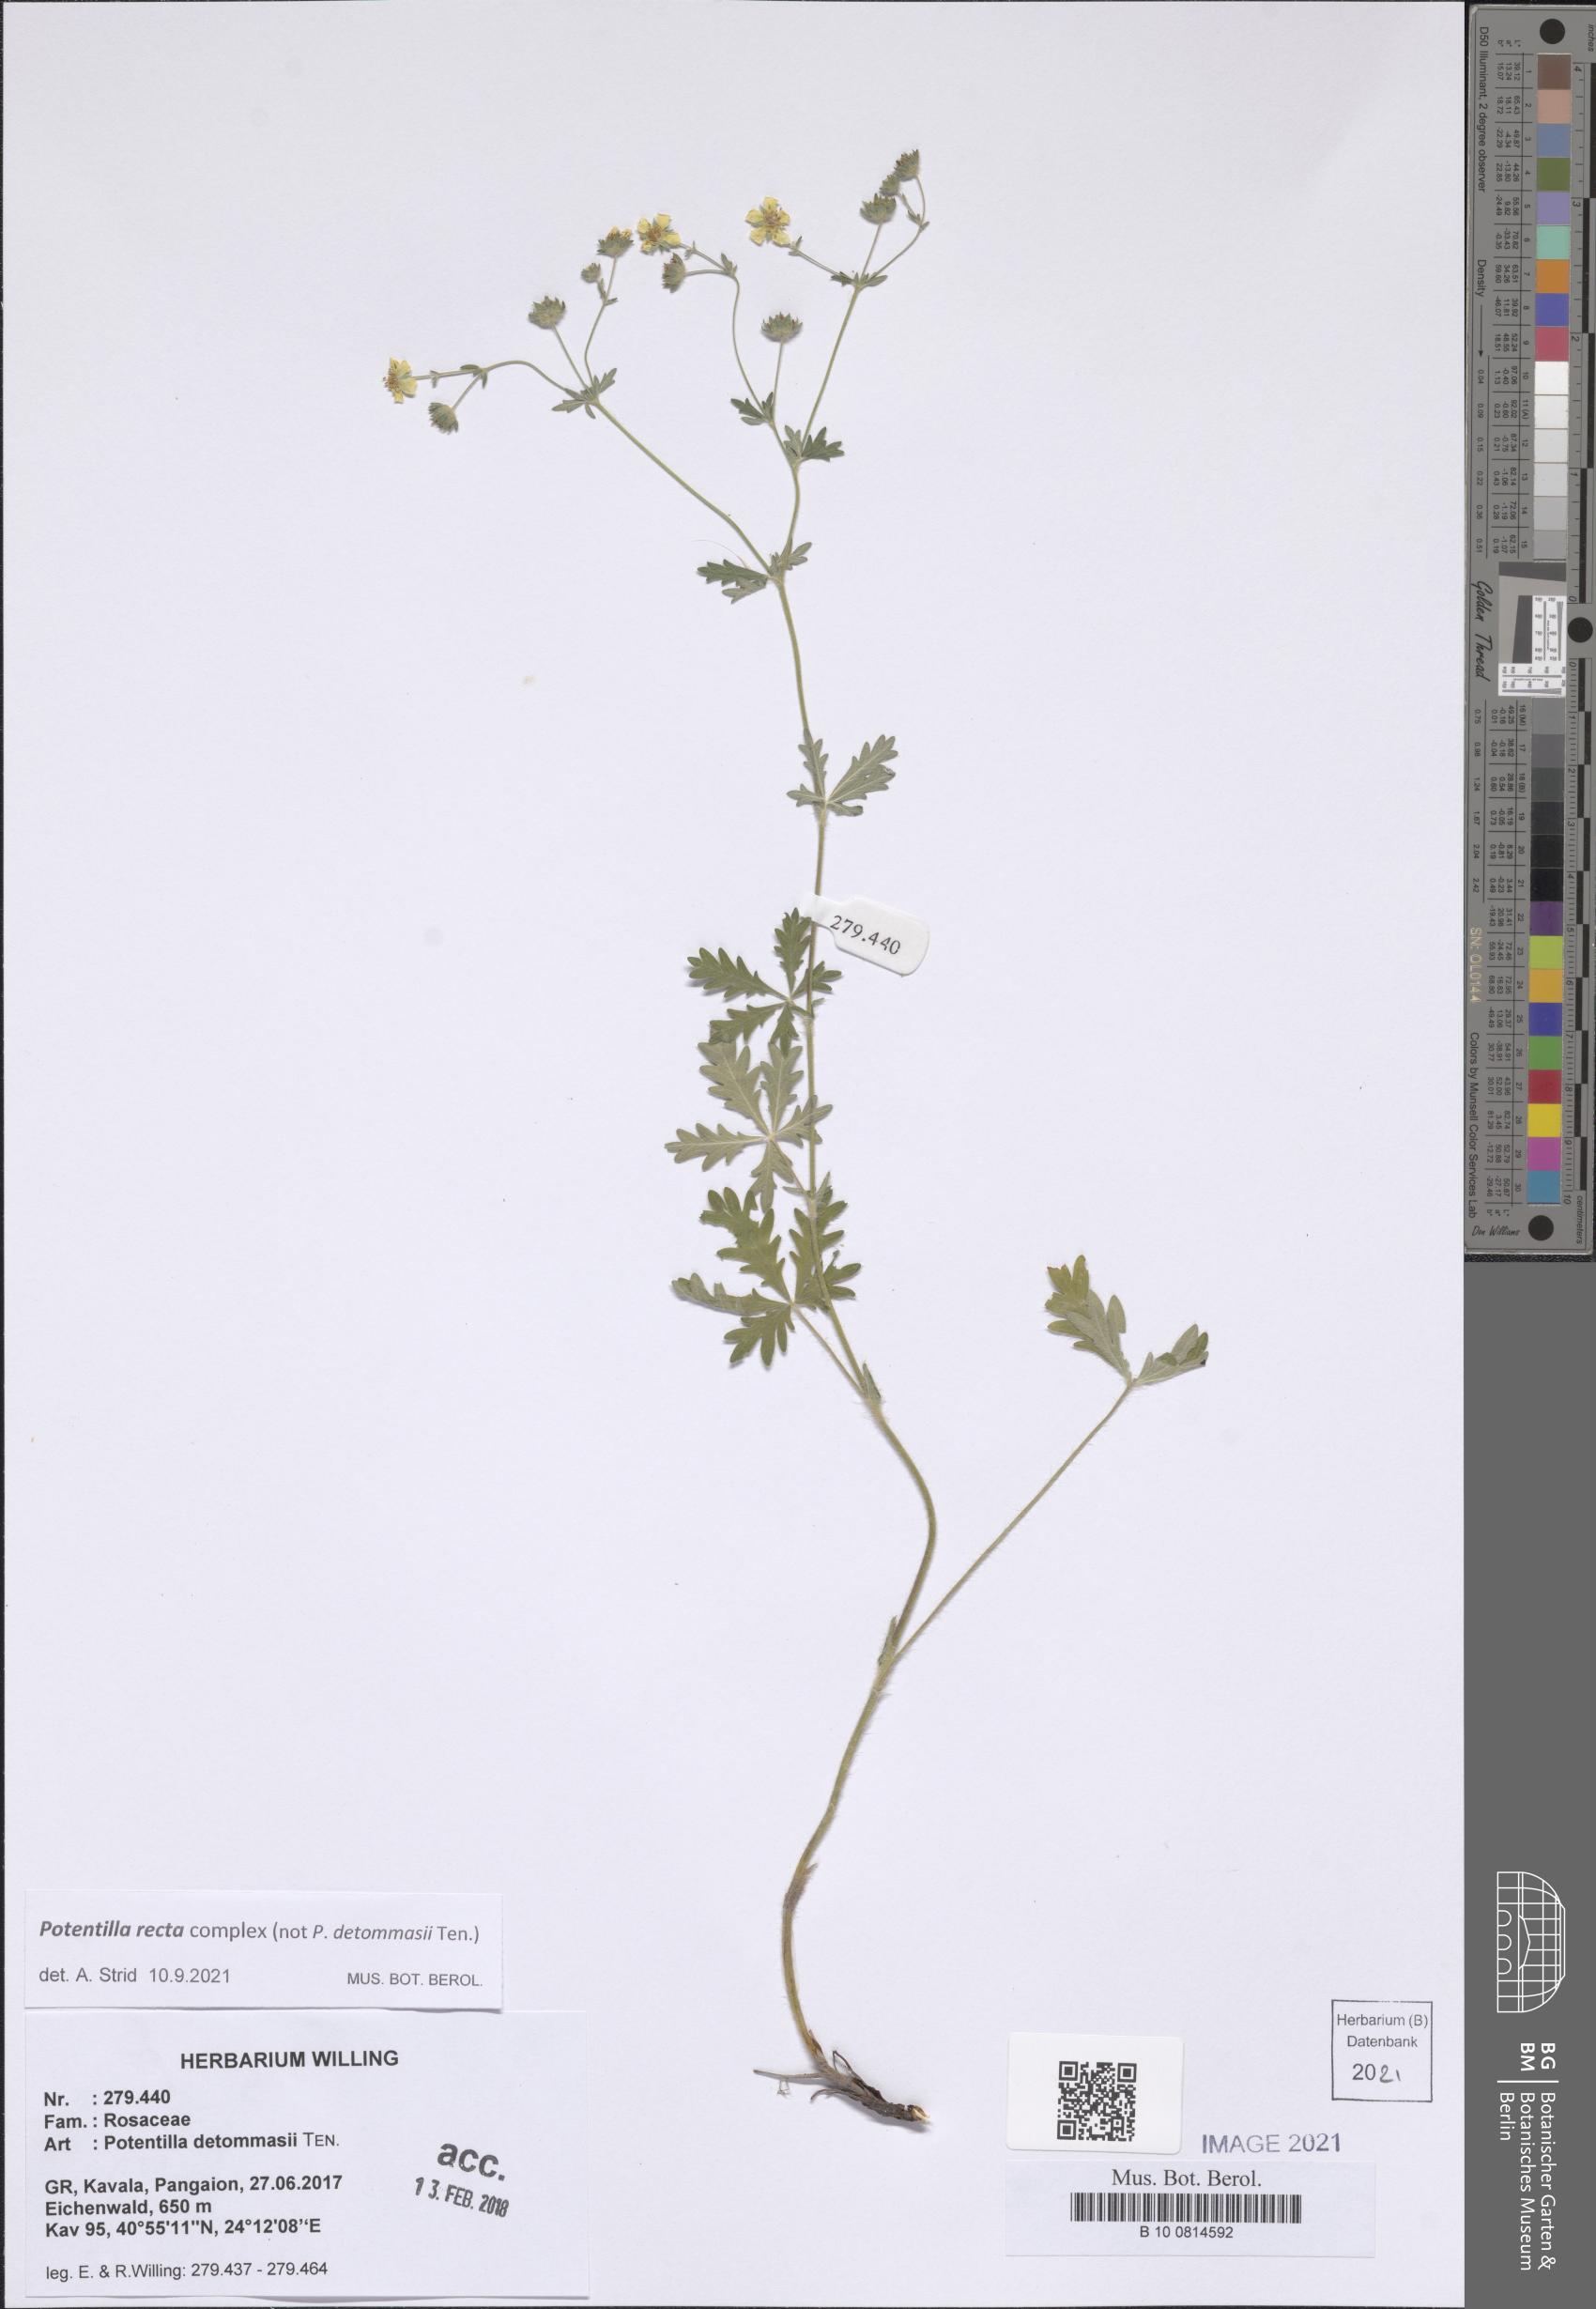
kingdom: Plantae
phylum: Tracheophyta
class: Magnoliopsida
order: Rosales
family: Rosaceae
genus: Potentilla
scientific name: Potentilla recta
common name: Sulphur cinquefoil
